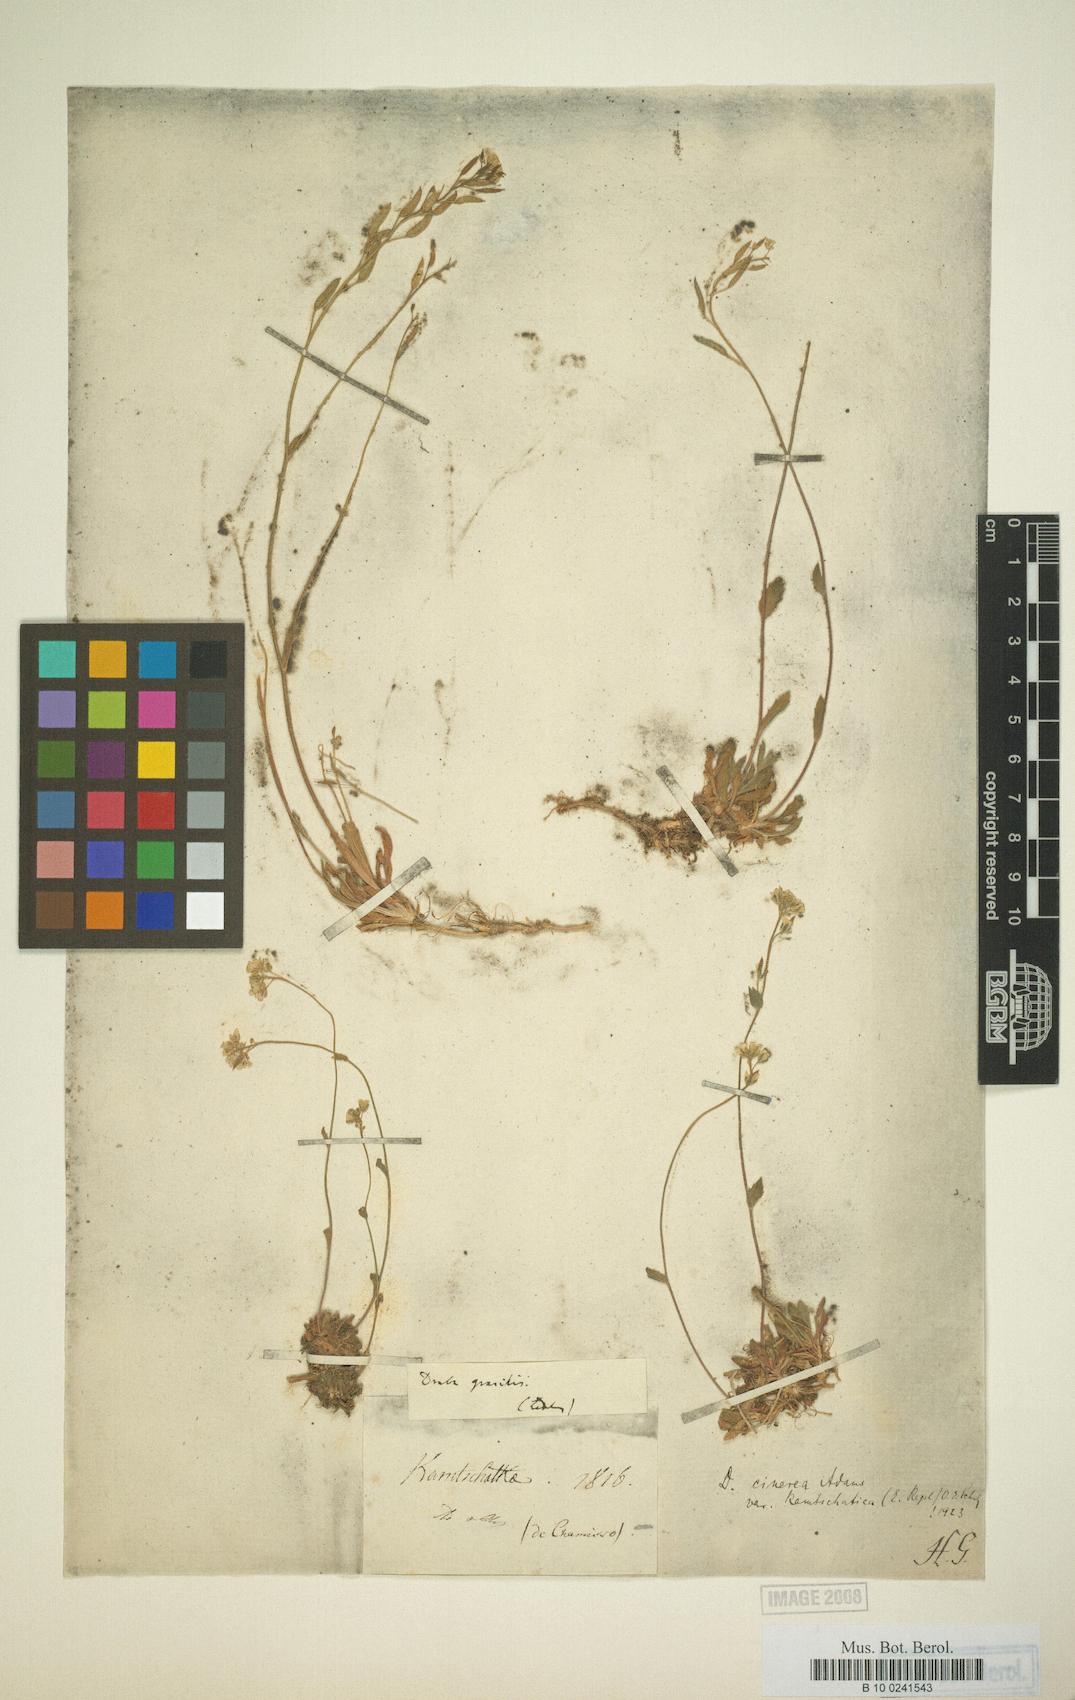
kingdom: Plantae
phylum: Tracheophyta
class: Magnoliopsida
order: Brassicales
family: Brassicaceae
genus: Draba
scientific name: Draba cinerea
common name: Ash-coloured whitlow-grass
